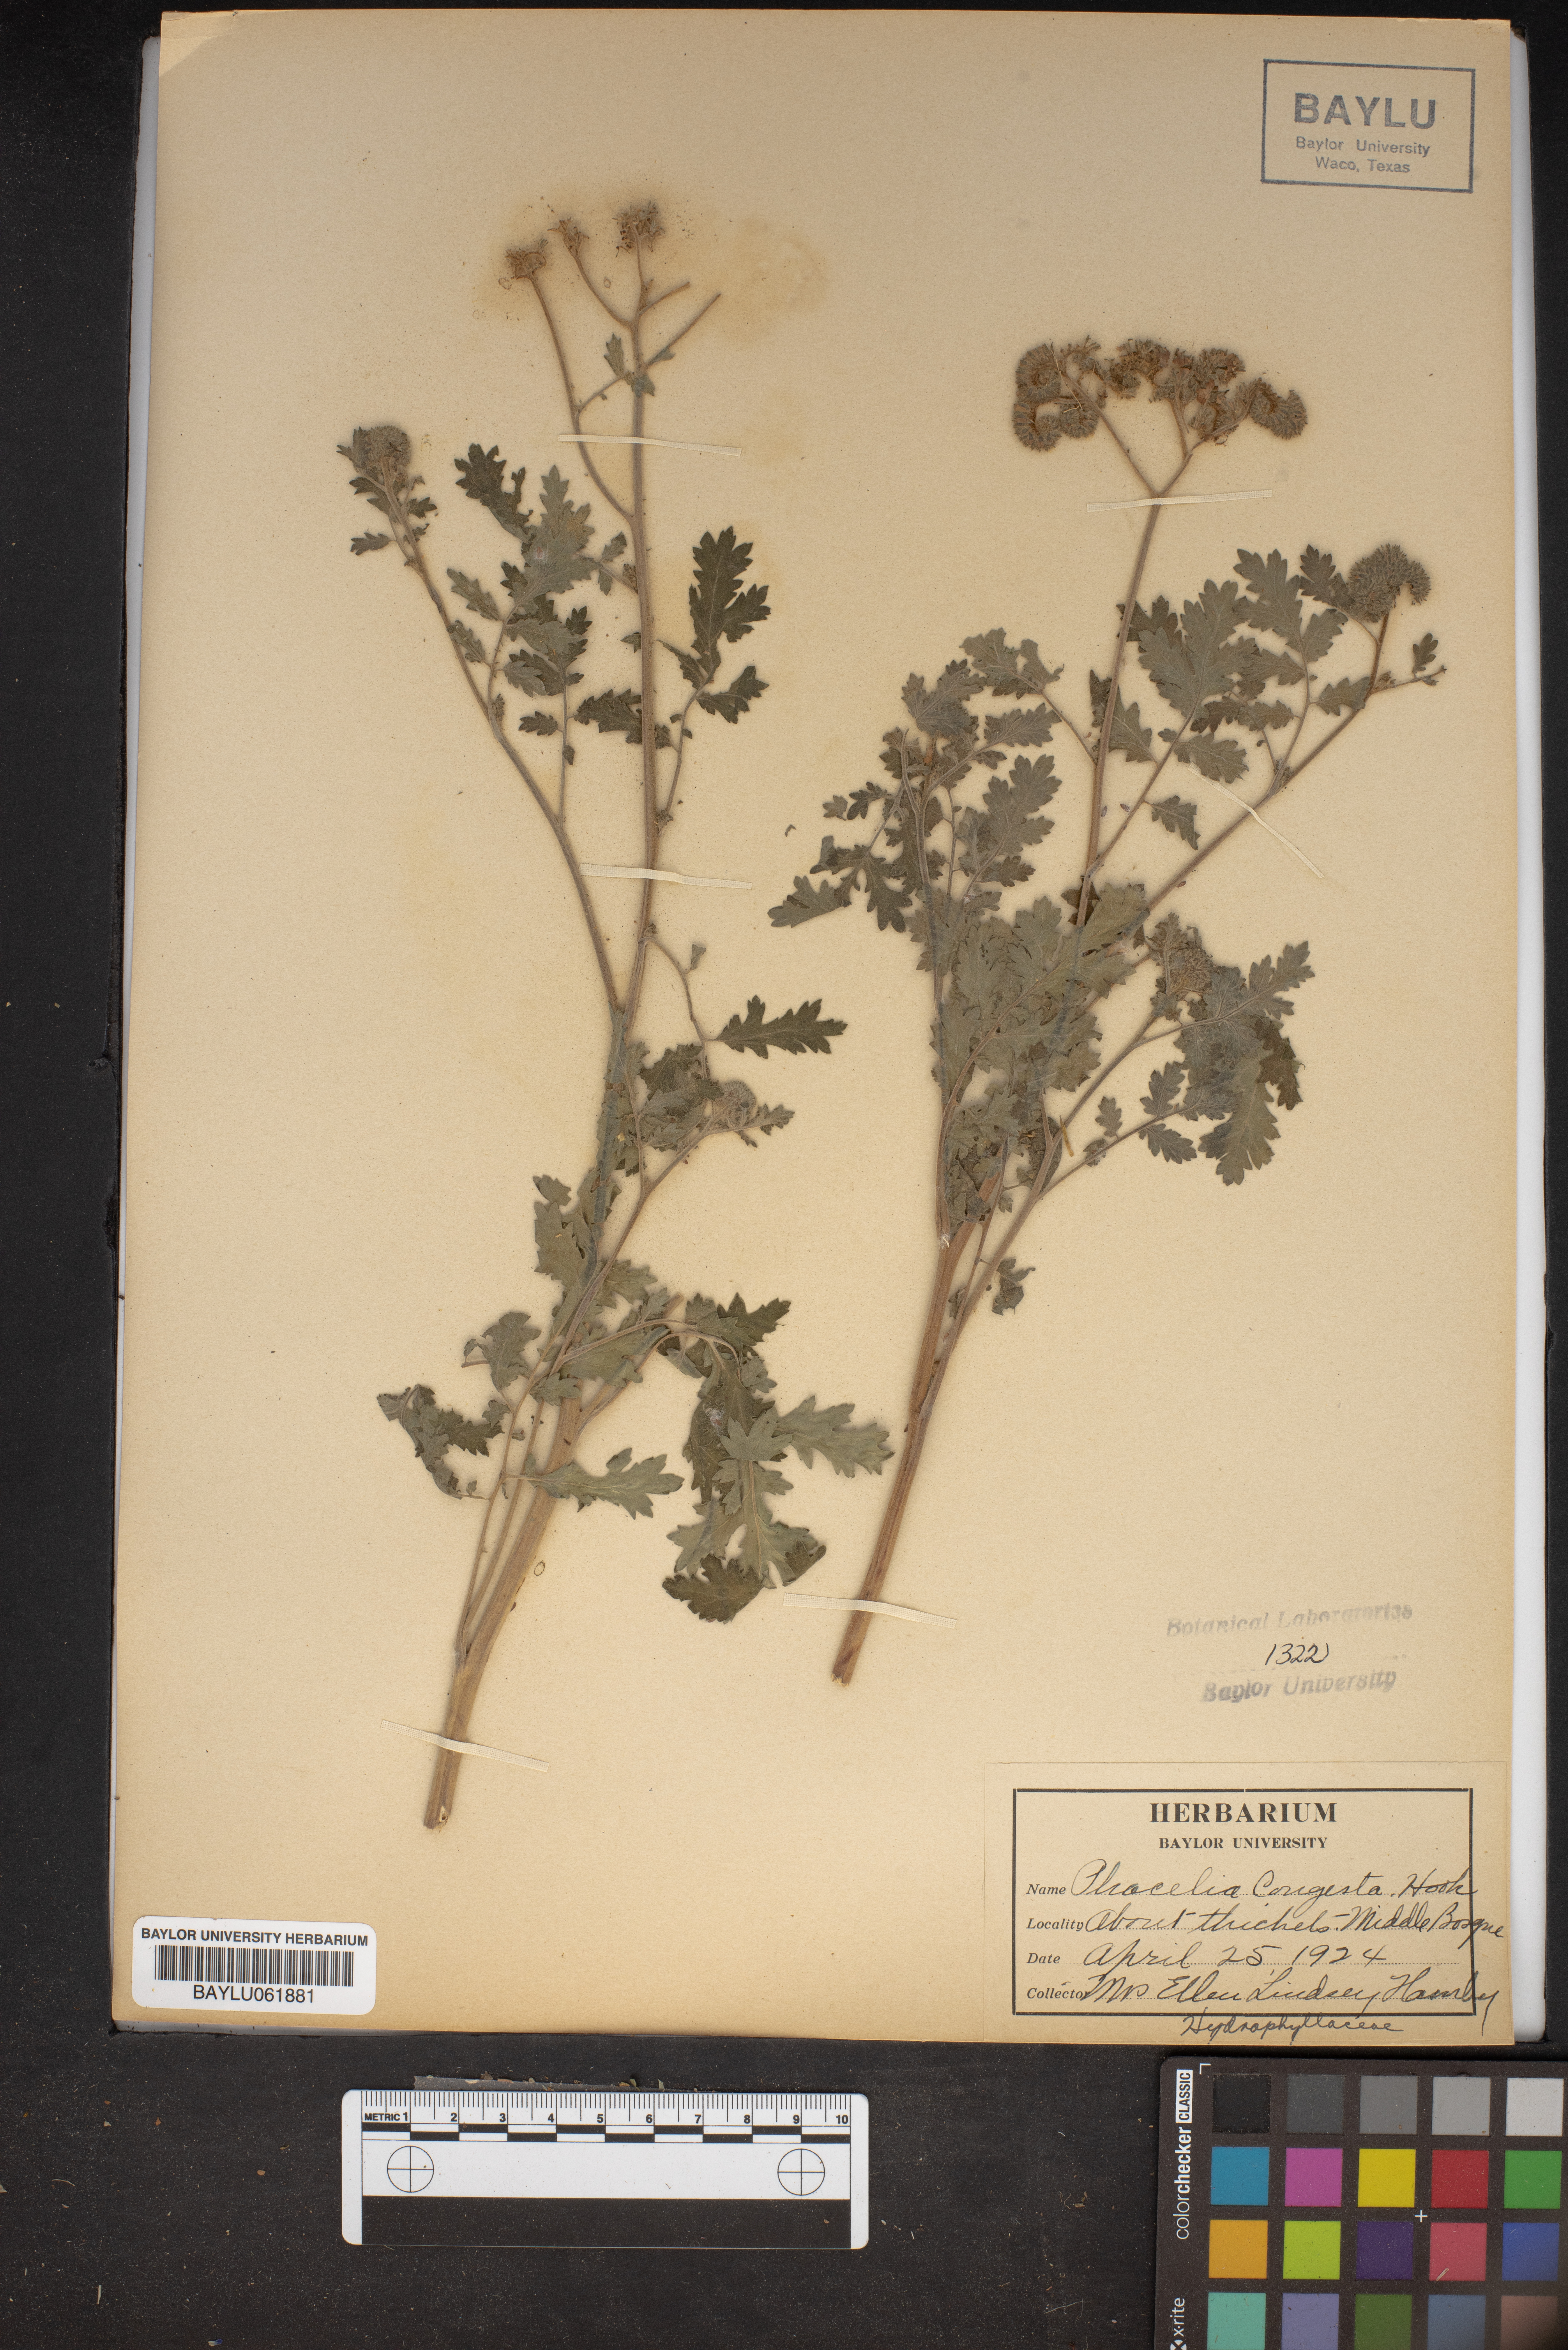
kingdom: Plantae
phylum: Tracheophyta
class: Magnoliopsida
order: Boraginales
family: Hydrophyllaceae
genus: Phacelia
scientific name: Phacelia congesta
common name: Blue curls
